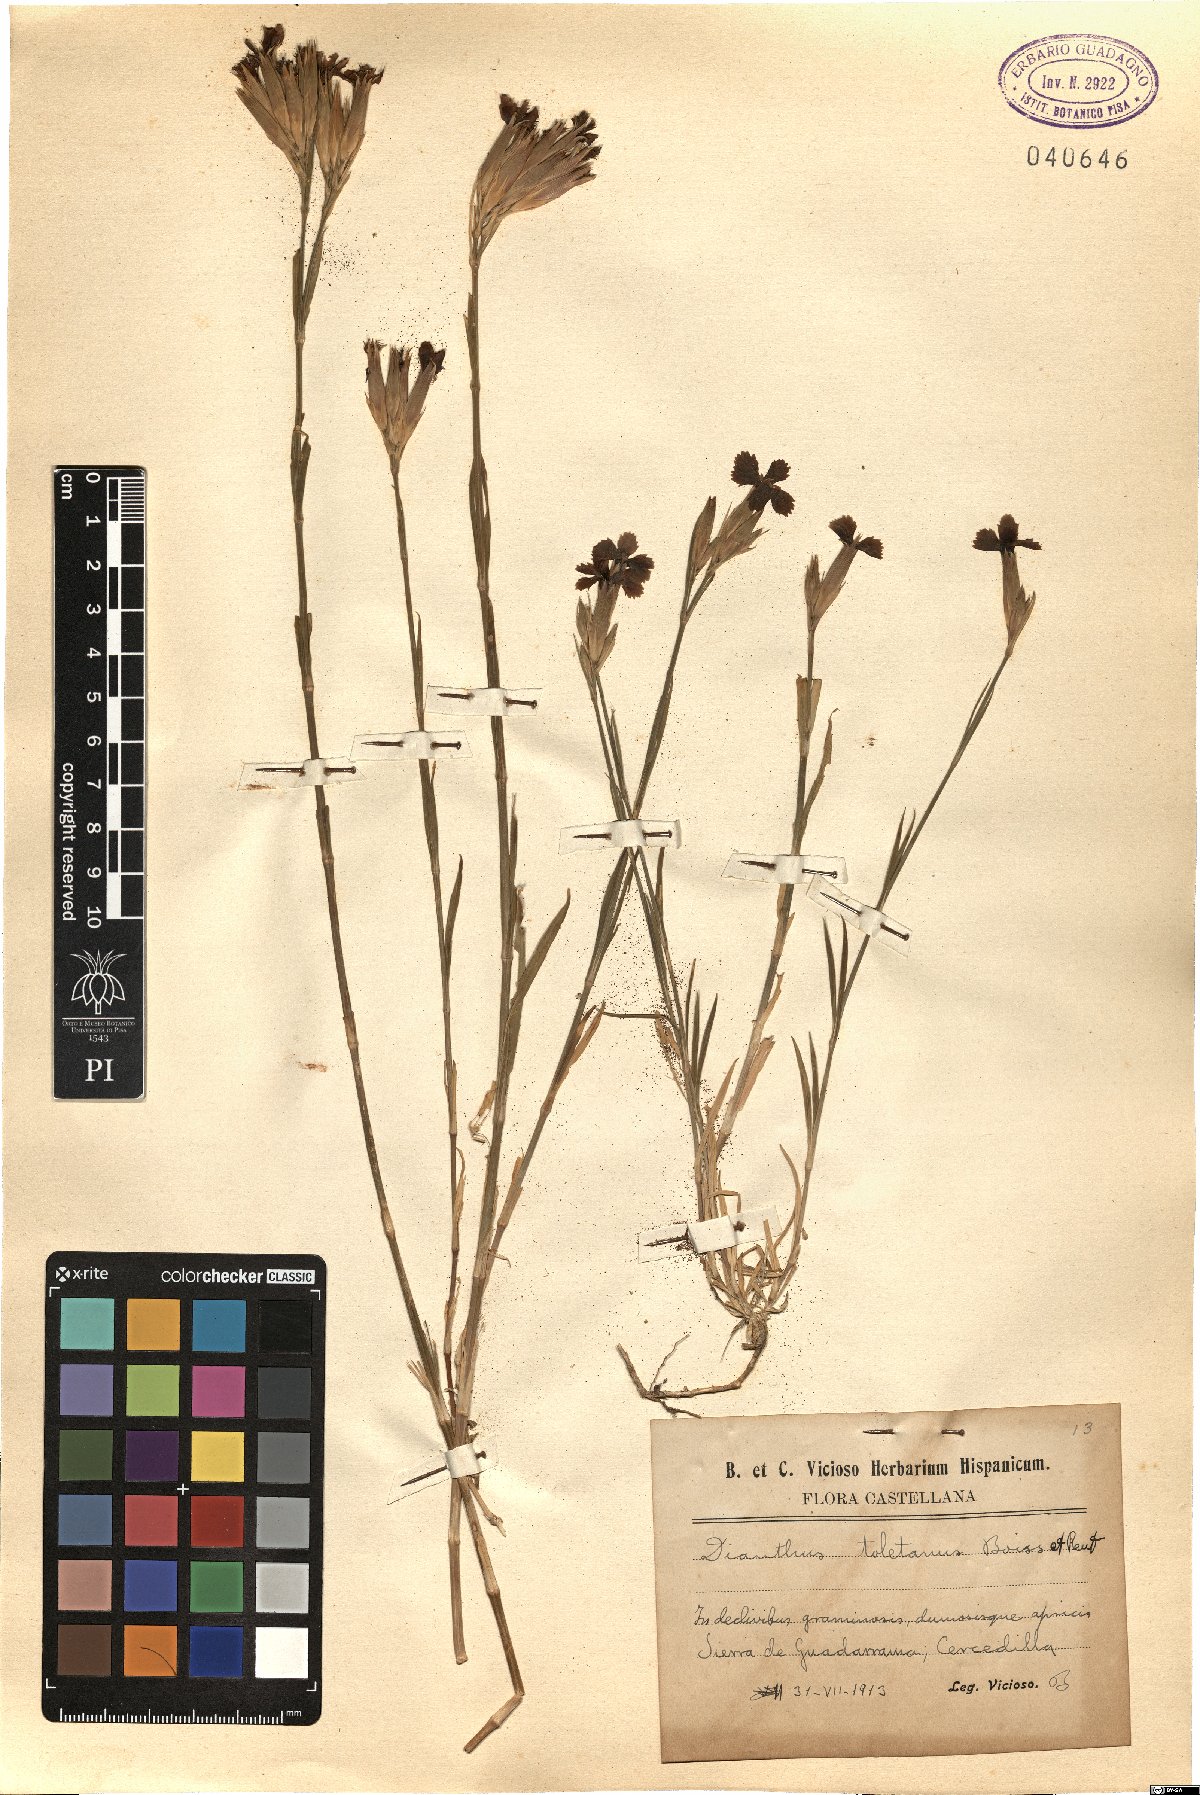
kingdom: Plantae
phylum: Tracheophyta
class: Magnoliopsida
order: Caryophyllales
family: Caryophyllaceae
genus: Dianthus
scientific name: Dianthus toletanus
